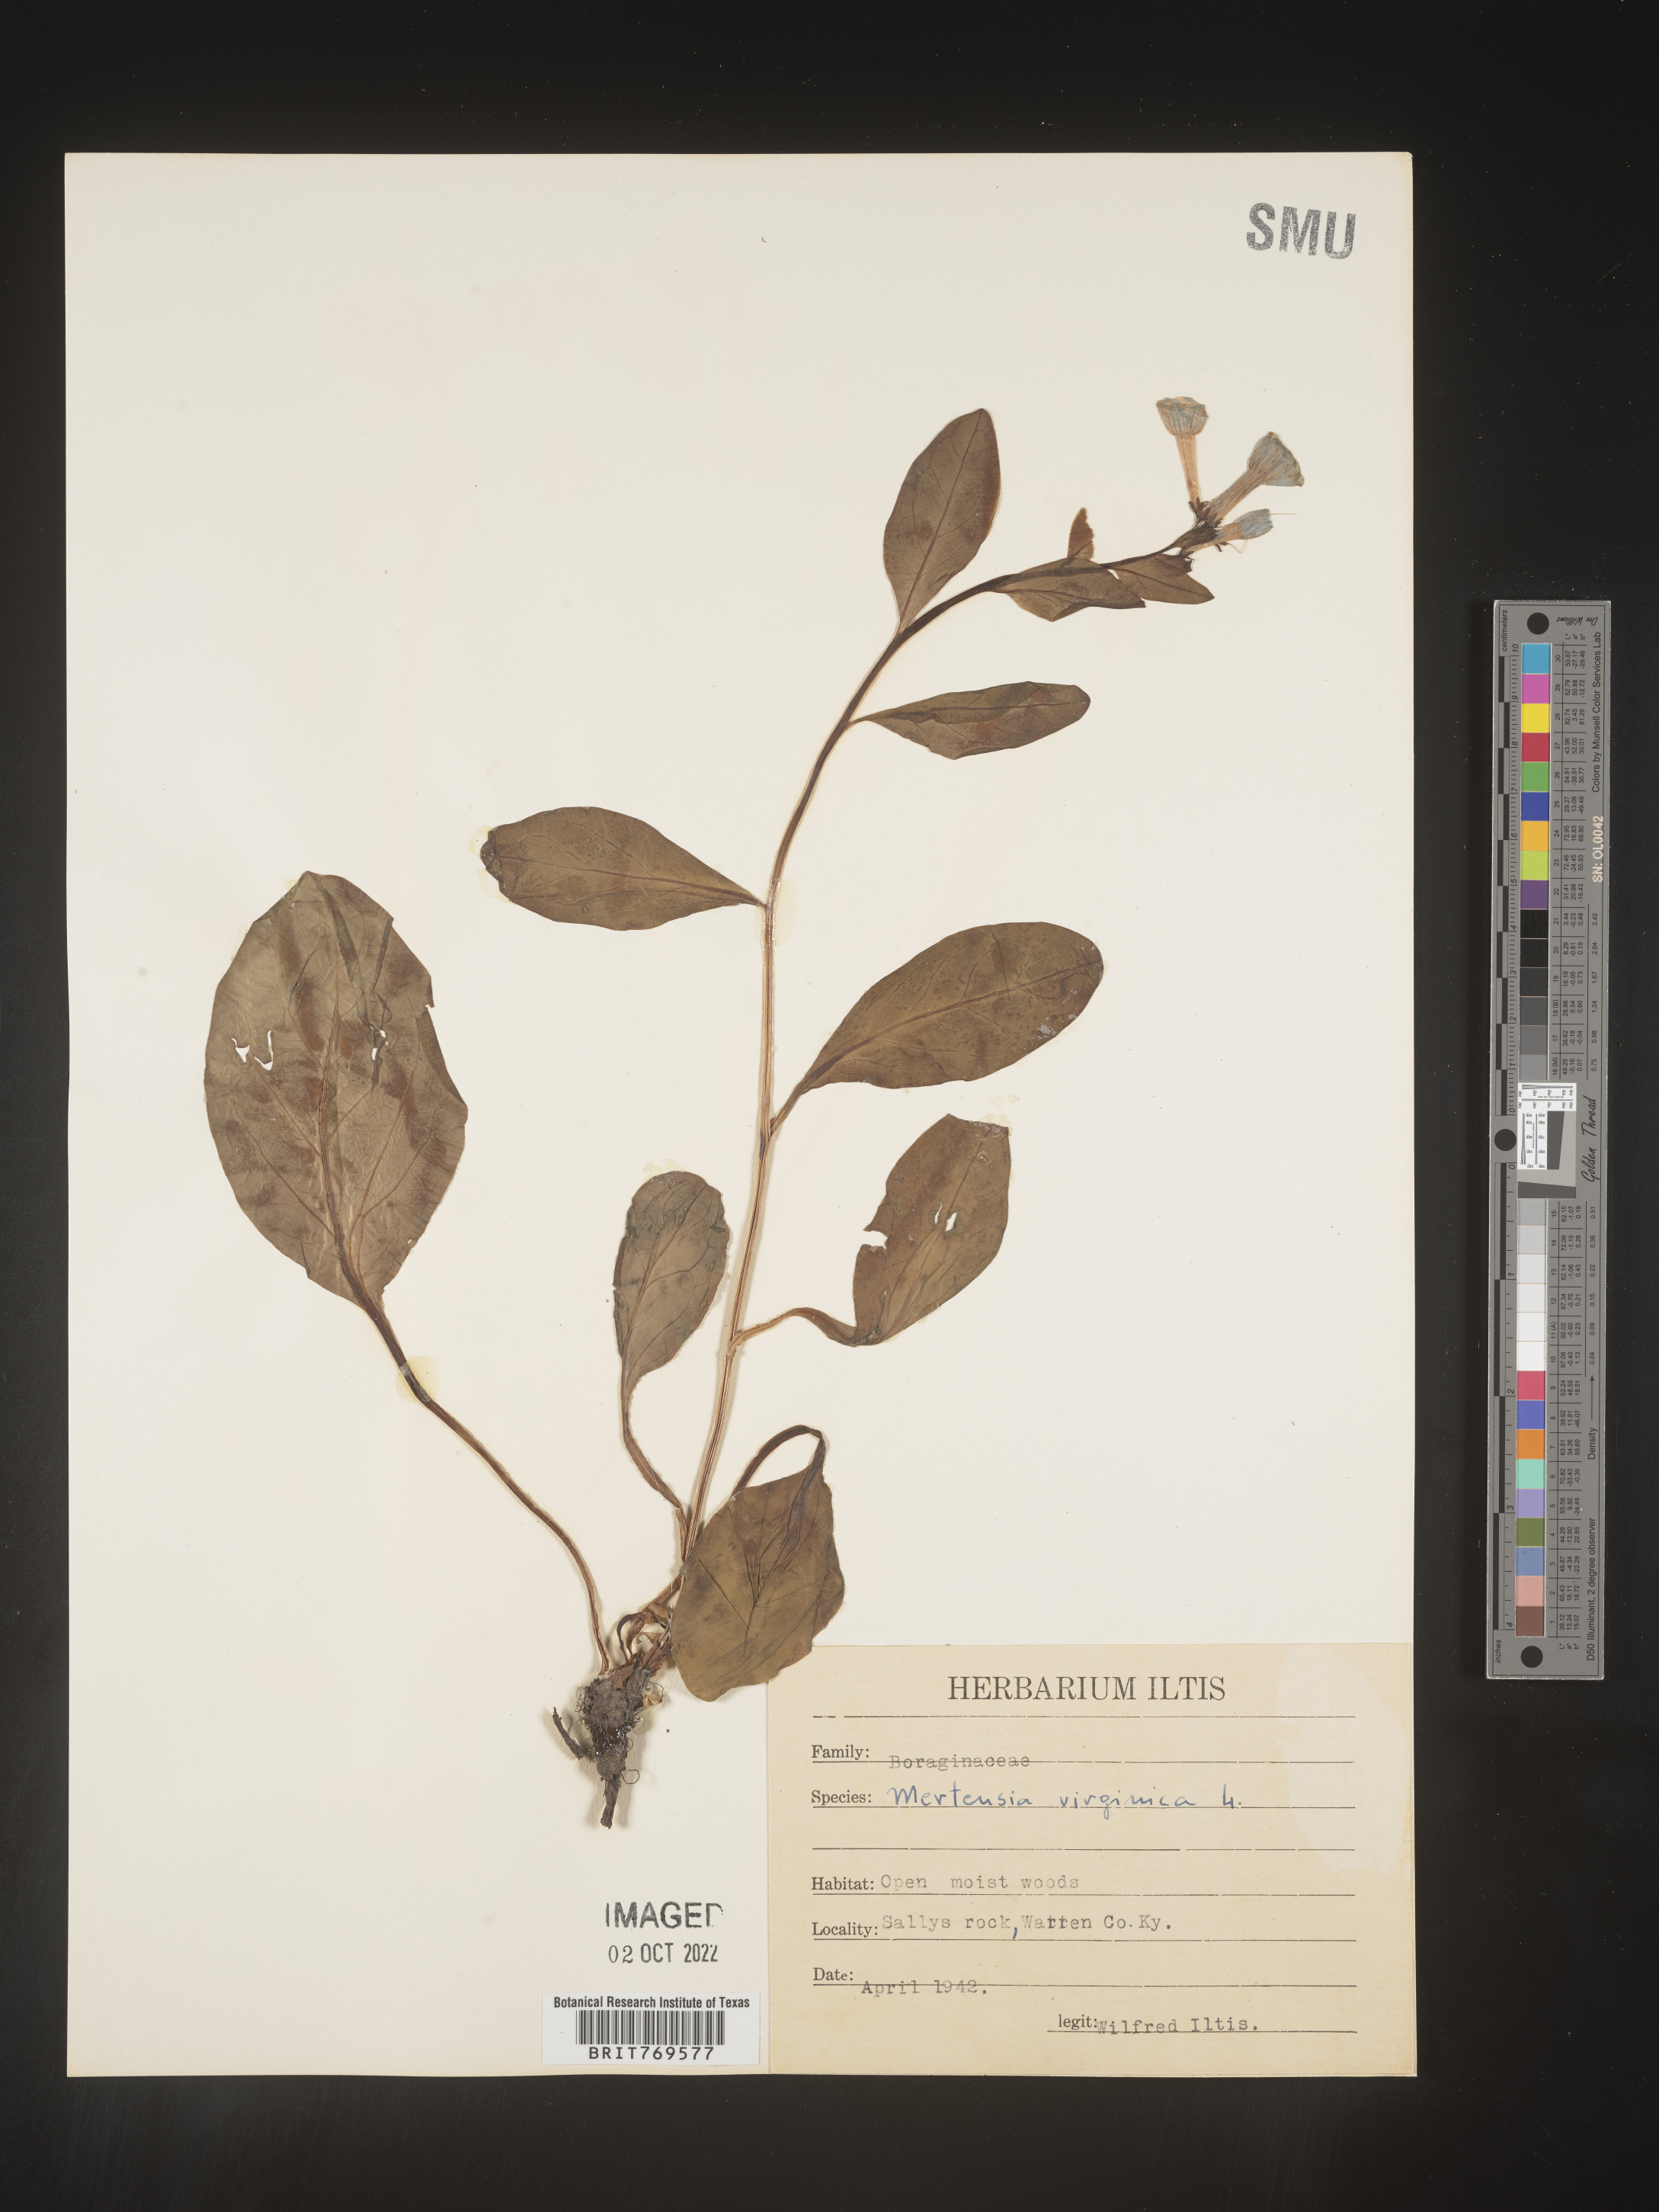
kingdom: Plantae
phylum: Tracheophyta
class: Magnoliopsida
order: Boraginales
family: Boraginaceae
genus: Mertensia
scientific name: Mertensia virginica
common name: Virginia bluebells
